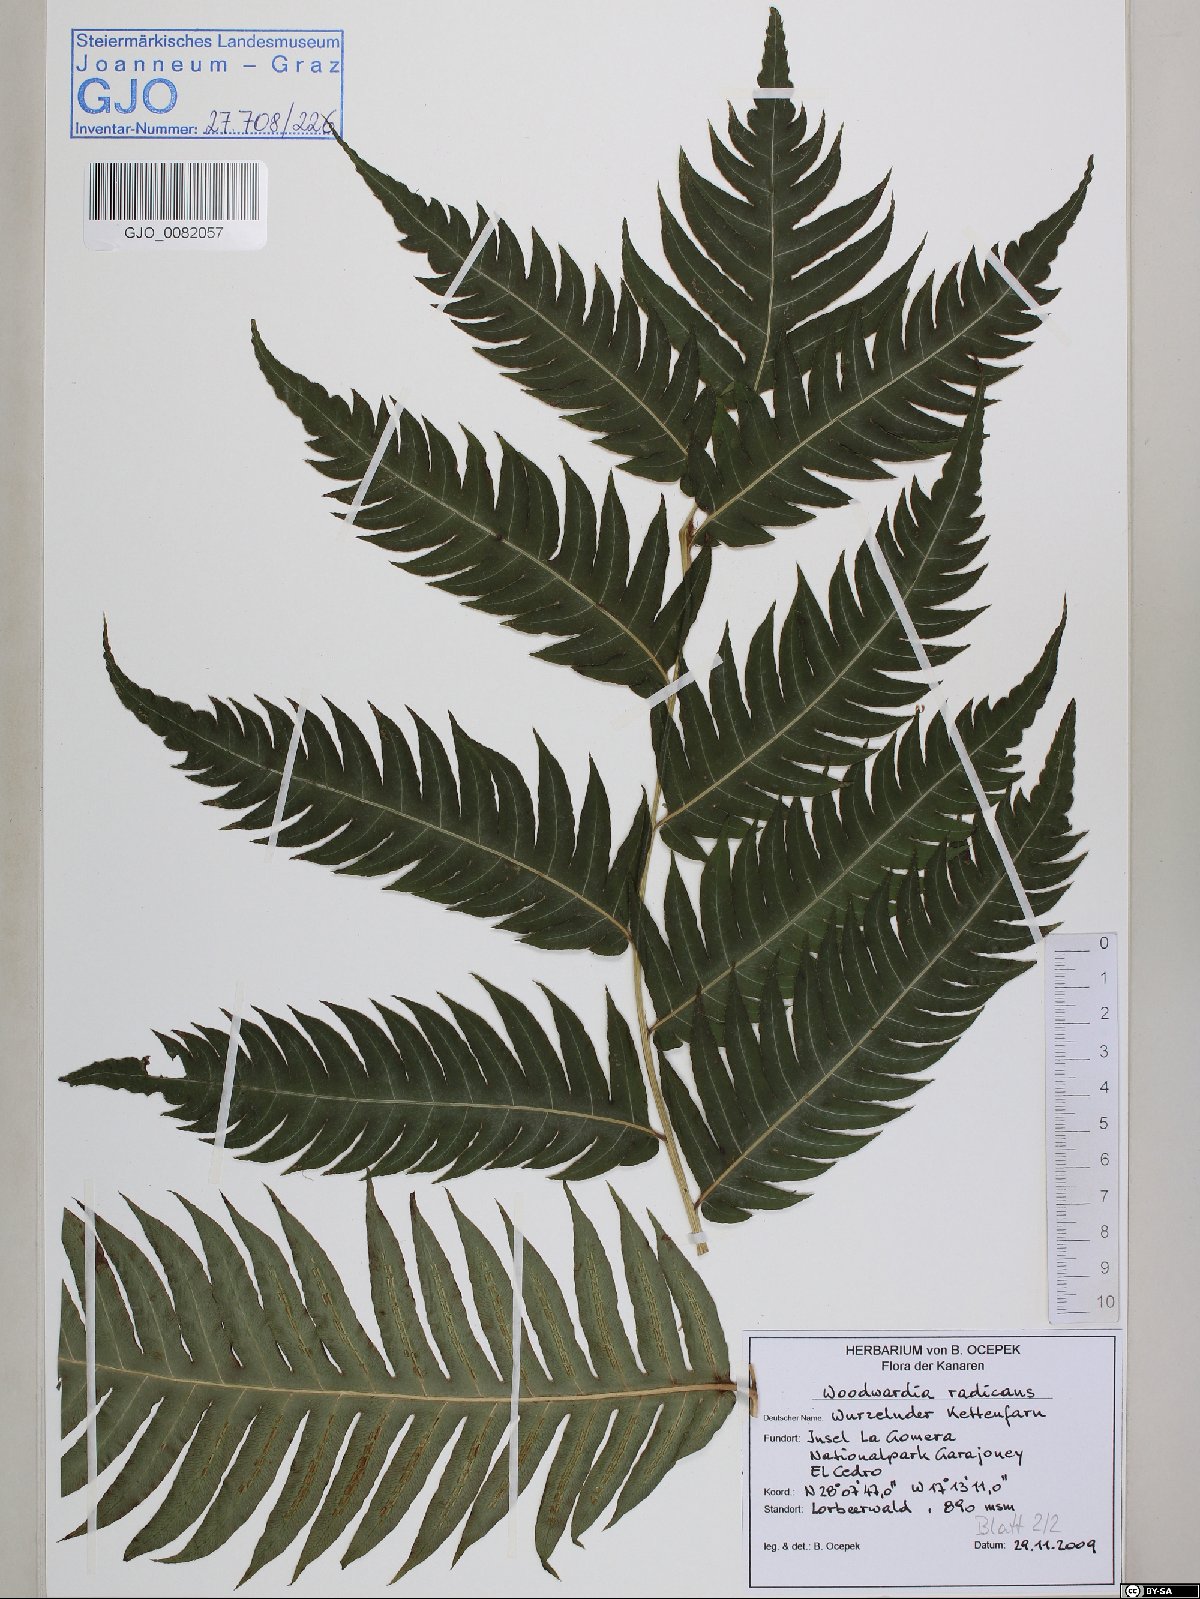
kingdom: Plantae
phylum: Tracheophyta
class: Polypodiopsida
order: Polypodiales
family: Blechnaceae
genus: Woodwardia
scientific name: Woodwardia radicans
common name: Rooting chainfern
